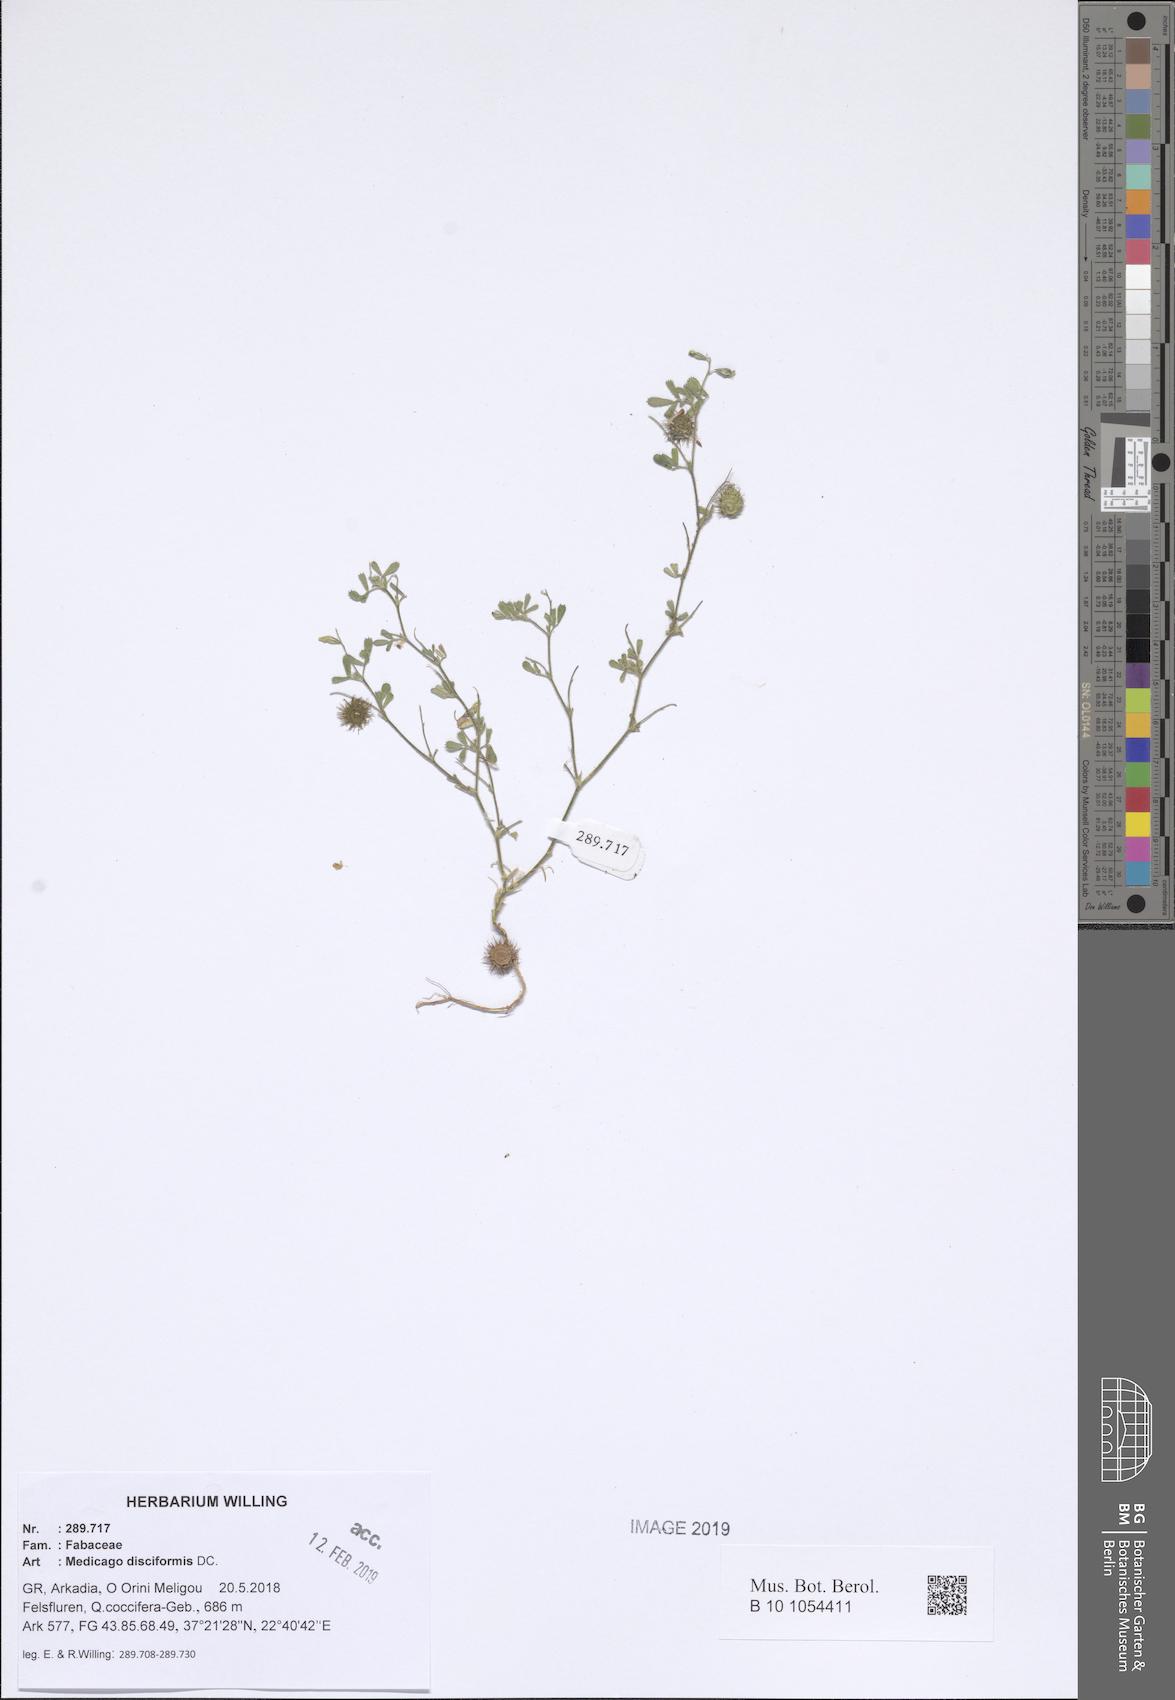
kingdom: Plantae
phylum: Tracheophyta
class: Magnoliopsida
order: Fabales
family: Fabaceae
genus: Medicago
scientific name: Medicago disciformis
